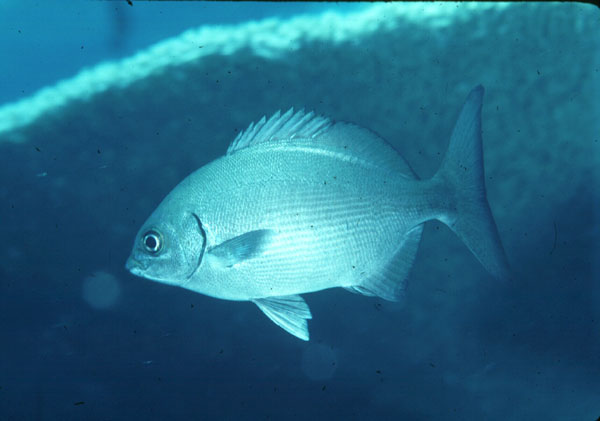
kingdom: Animalia
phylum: Chordata
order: Perciformes
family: Kyphosidae
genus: Kyphosus
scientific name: Kyphosus bigibbus
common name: Brown chub
